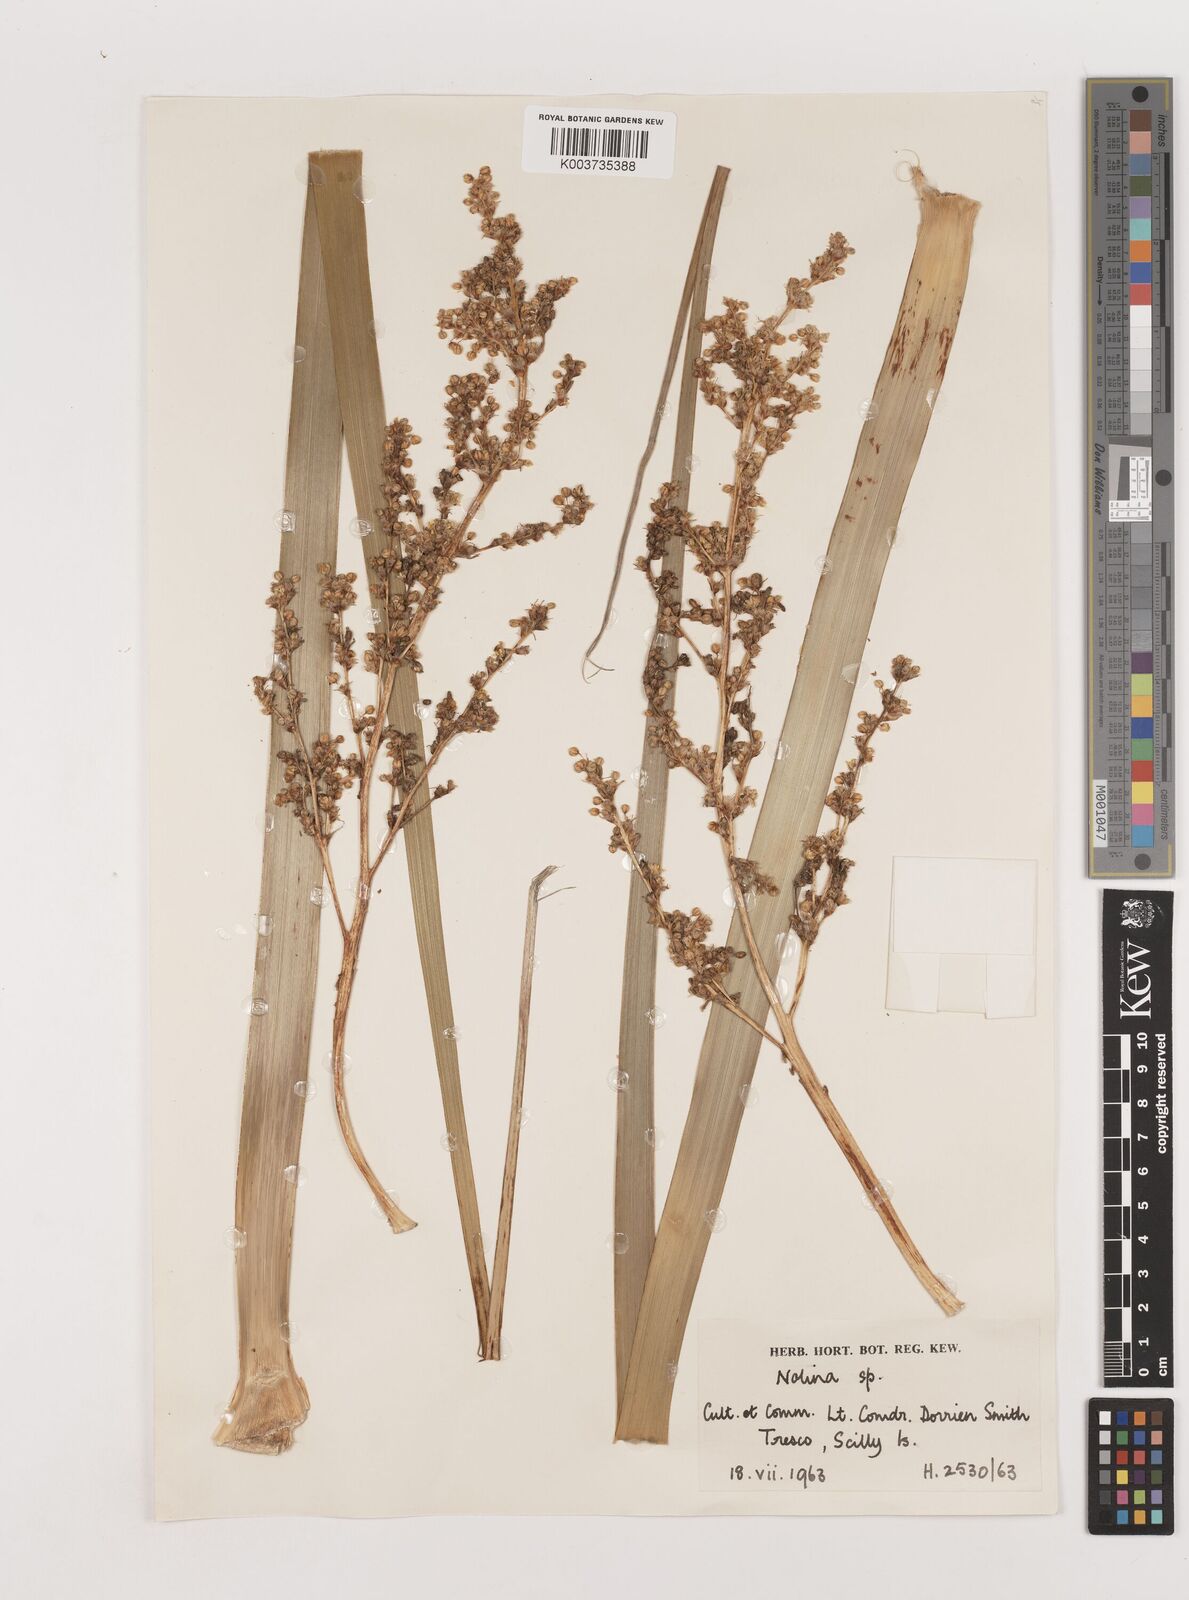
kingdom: Plantae
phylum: Tracheophyta
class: Liliopsida
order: Asparagales
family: Asparagaceae
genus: Nolina
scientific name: Nolina
